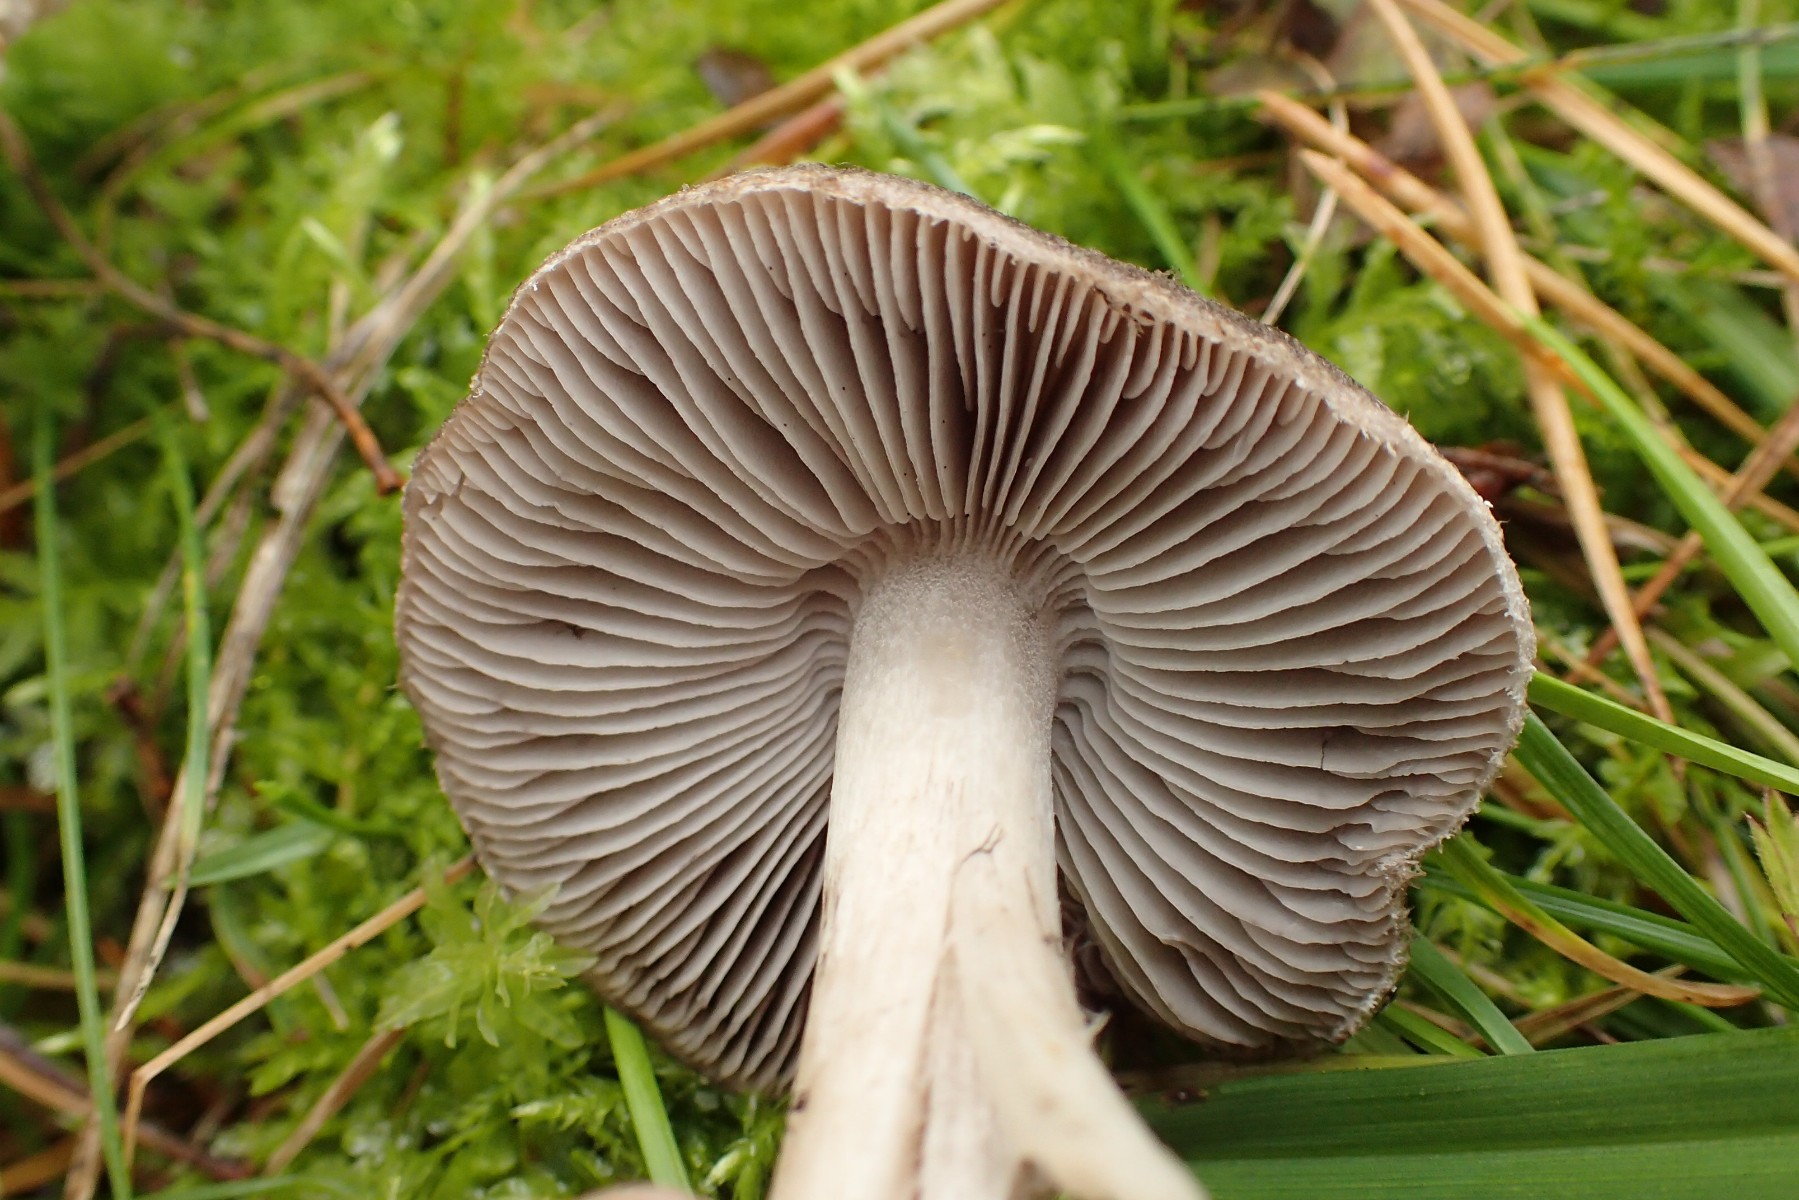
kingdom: Fungi
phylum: Basidiomycota
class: Agaricomycetes
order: Agaricales
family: Tricholomataceae
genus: Tricholoma
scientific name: Tricholoma terreum
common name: jordfarvet ridderhat
